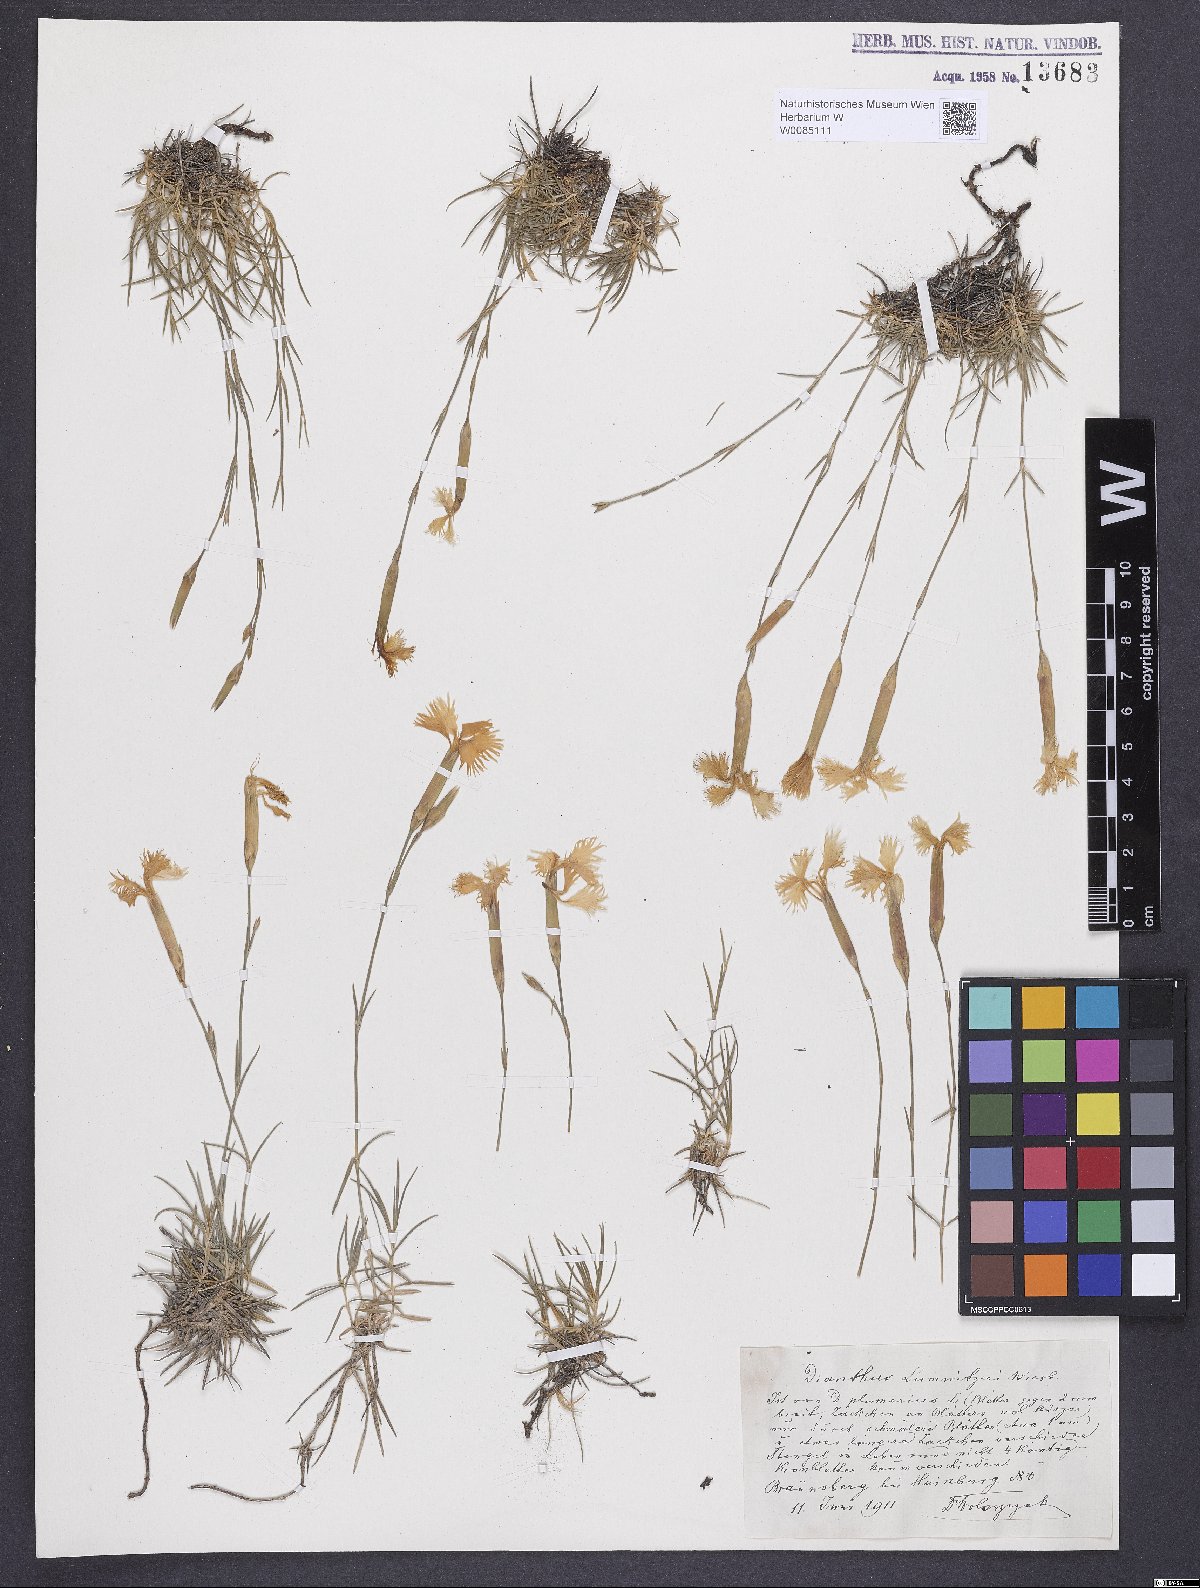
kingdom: Plantae
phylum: Tracheophyta
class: Magnoliopsida
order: Caryophyllales
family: Caryophyllaceae
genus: Dianthus
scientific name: Dianthus praecox
